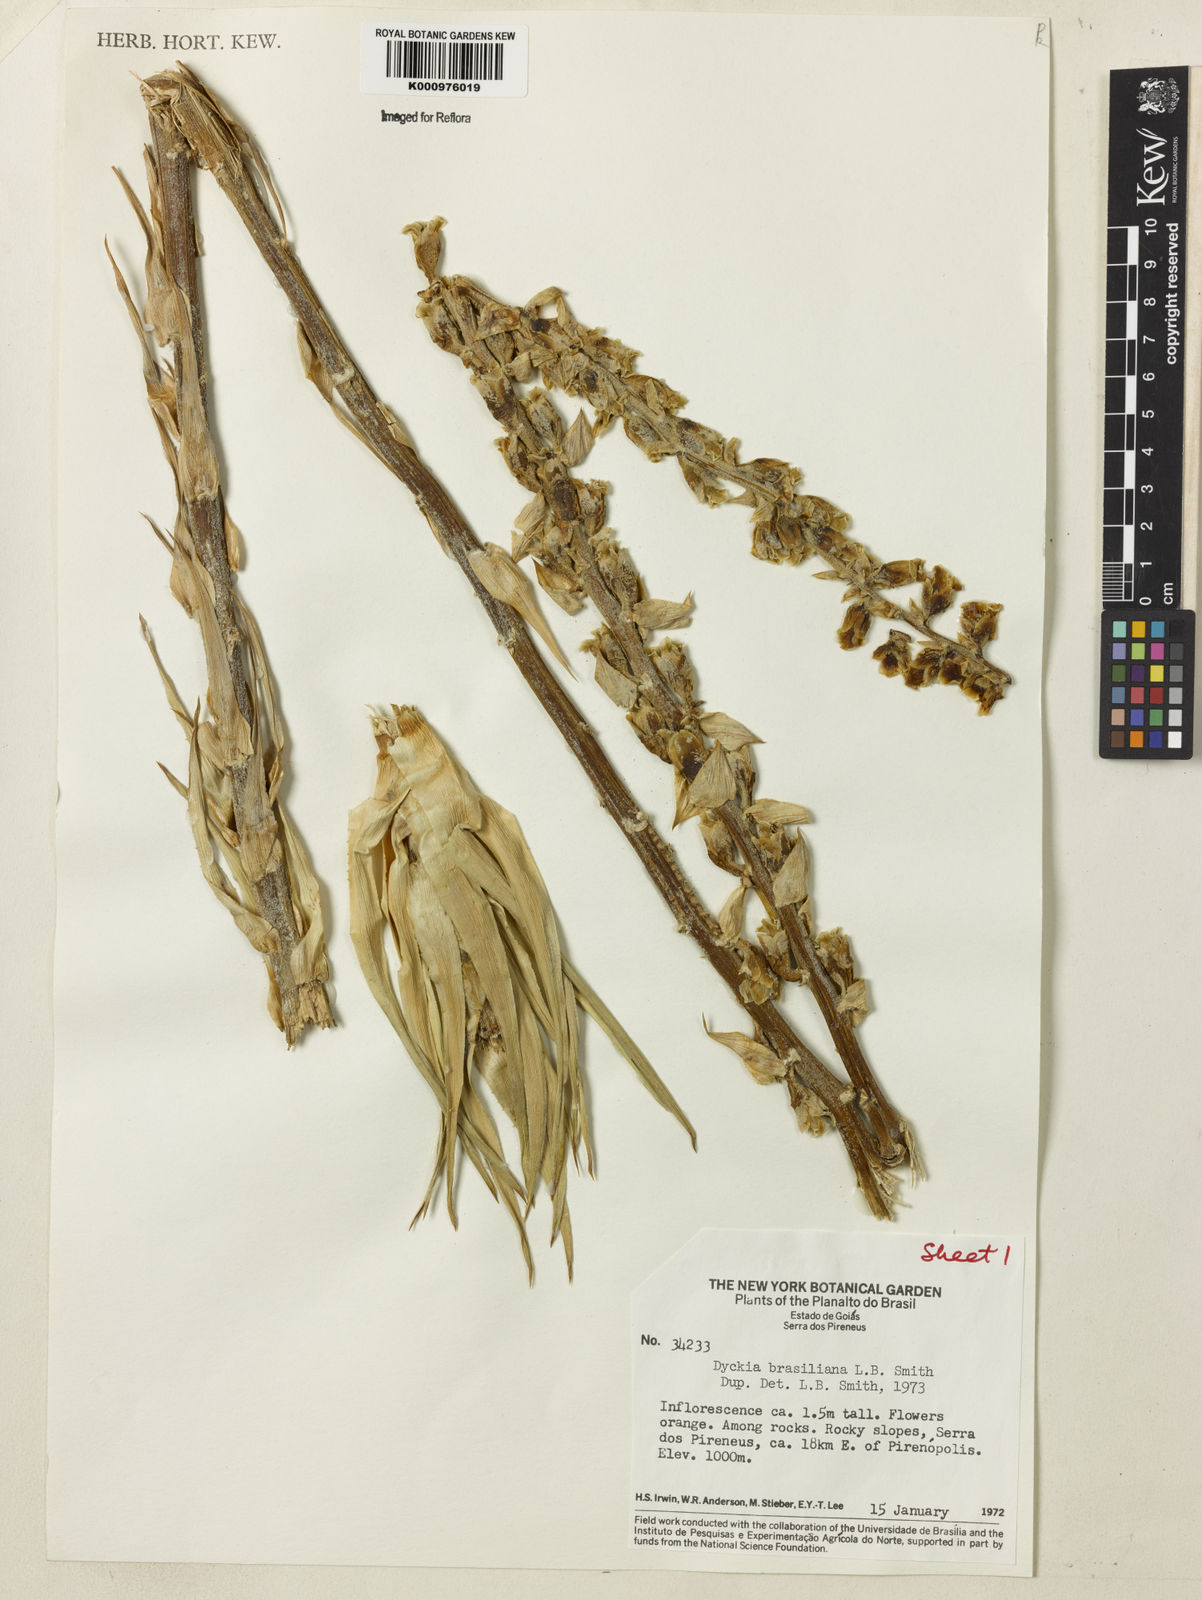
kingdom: Plantae
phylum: Tracheophyta
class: Liliopsida
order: Poales
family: Bromeliaceae
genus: Dyckia
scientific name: Dyckia brasiliana
